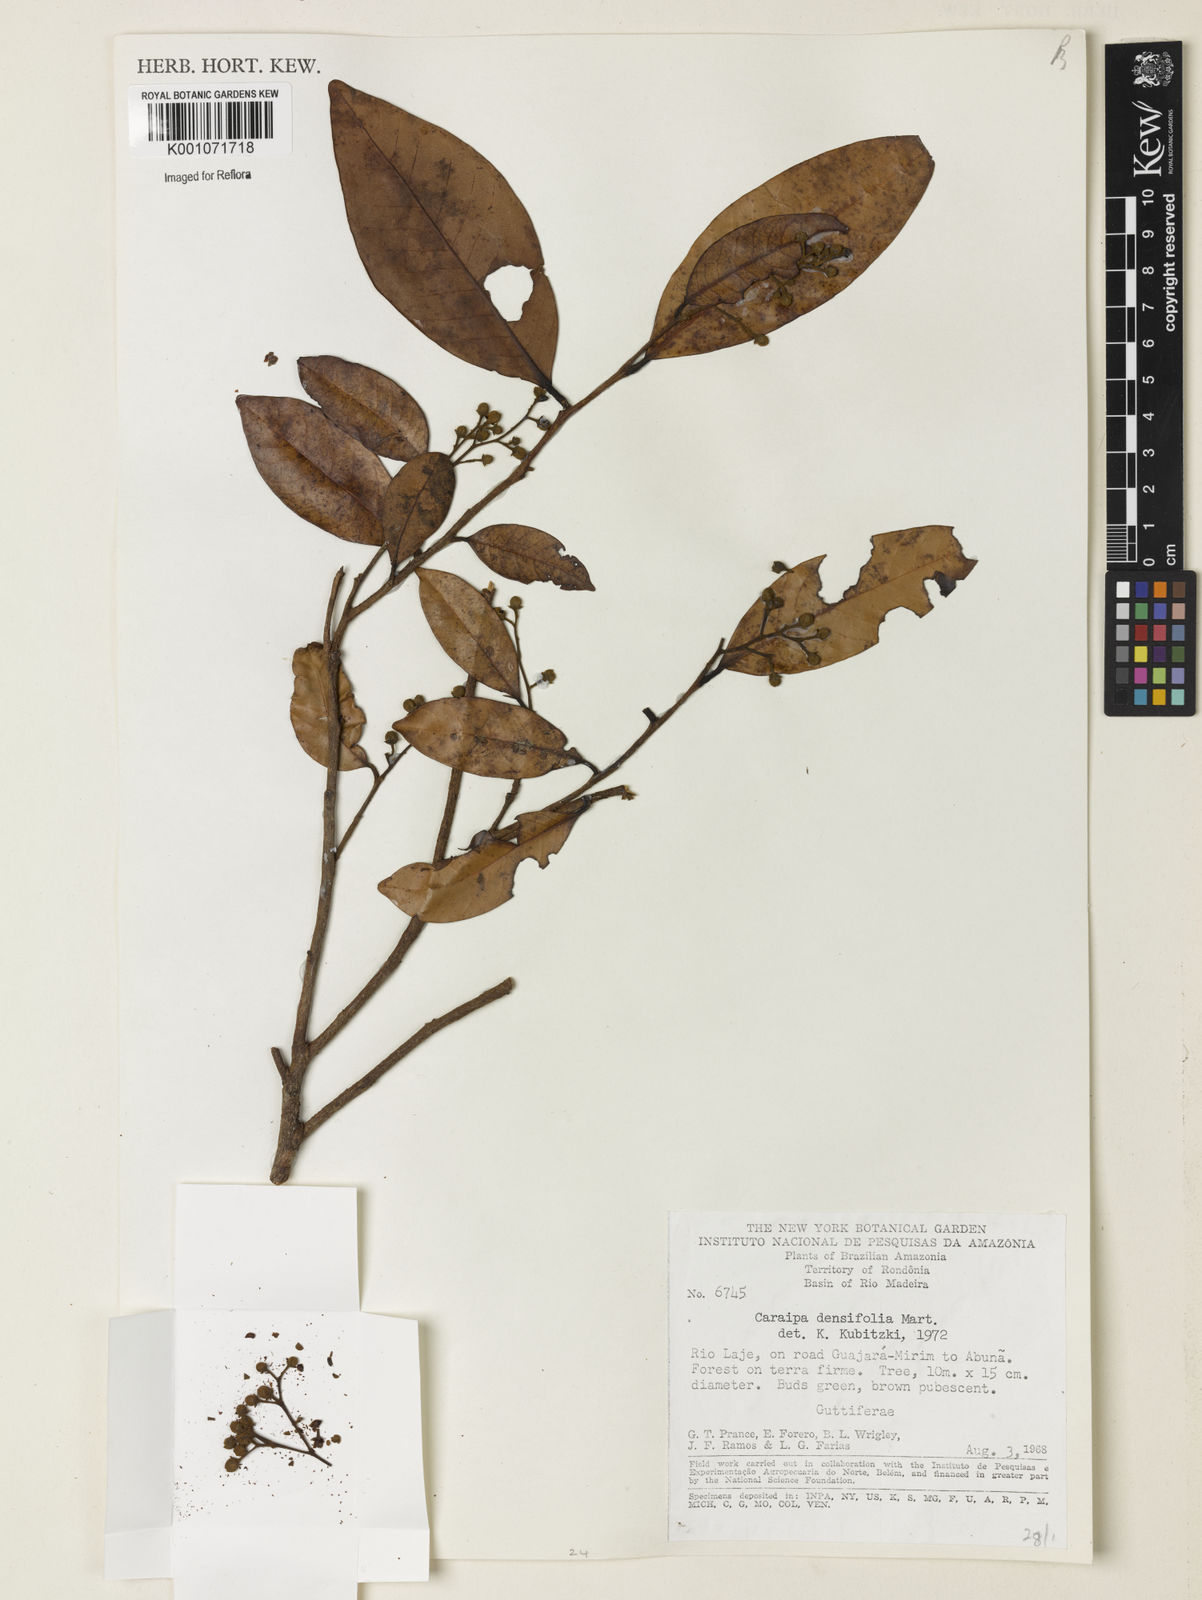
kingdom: Plantae
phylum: Tracheophyta
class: Magnoliopsida
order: Malpighiales
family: Calophyllaceae
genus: Caraipa
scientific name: Caraipa densifolia
